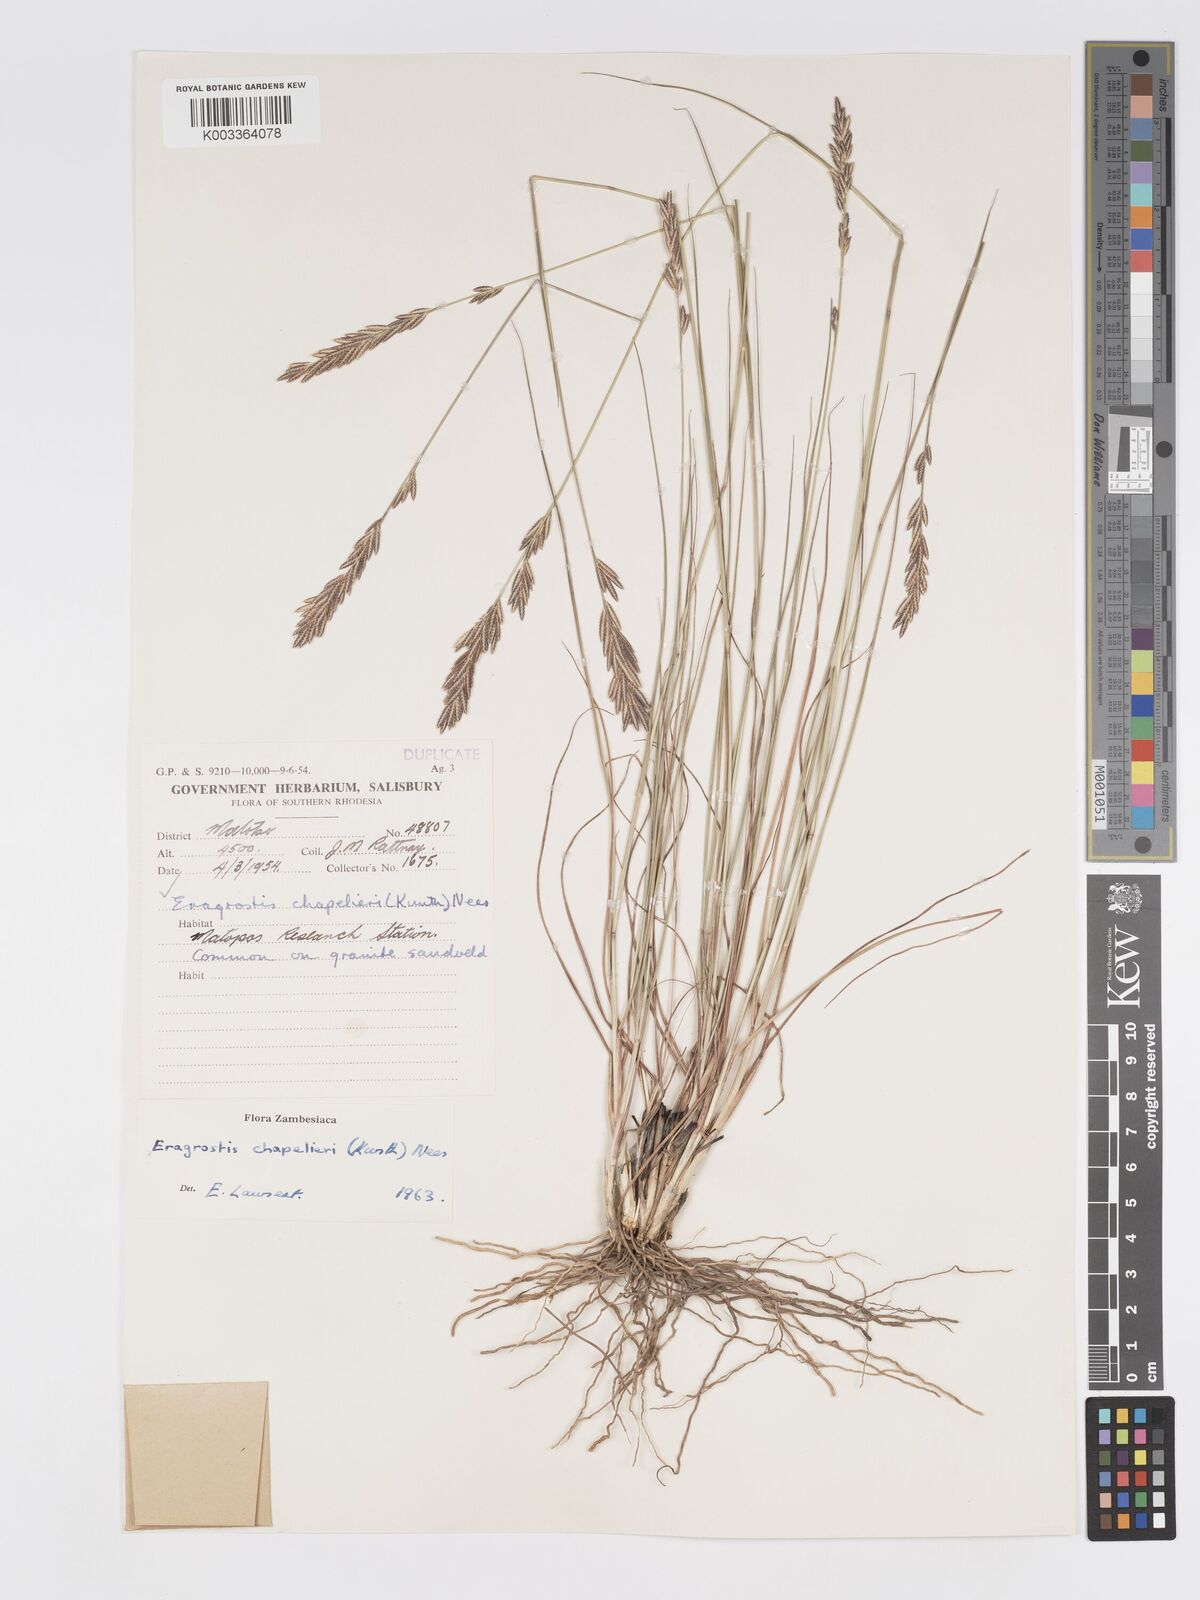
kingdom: Plantae
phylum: Tracheophyta
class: Liliopsida
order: Poales
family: Poaceae
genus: Eragrostis
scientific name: Eragrostis chapelieri
